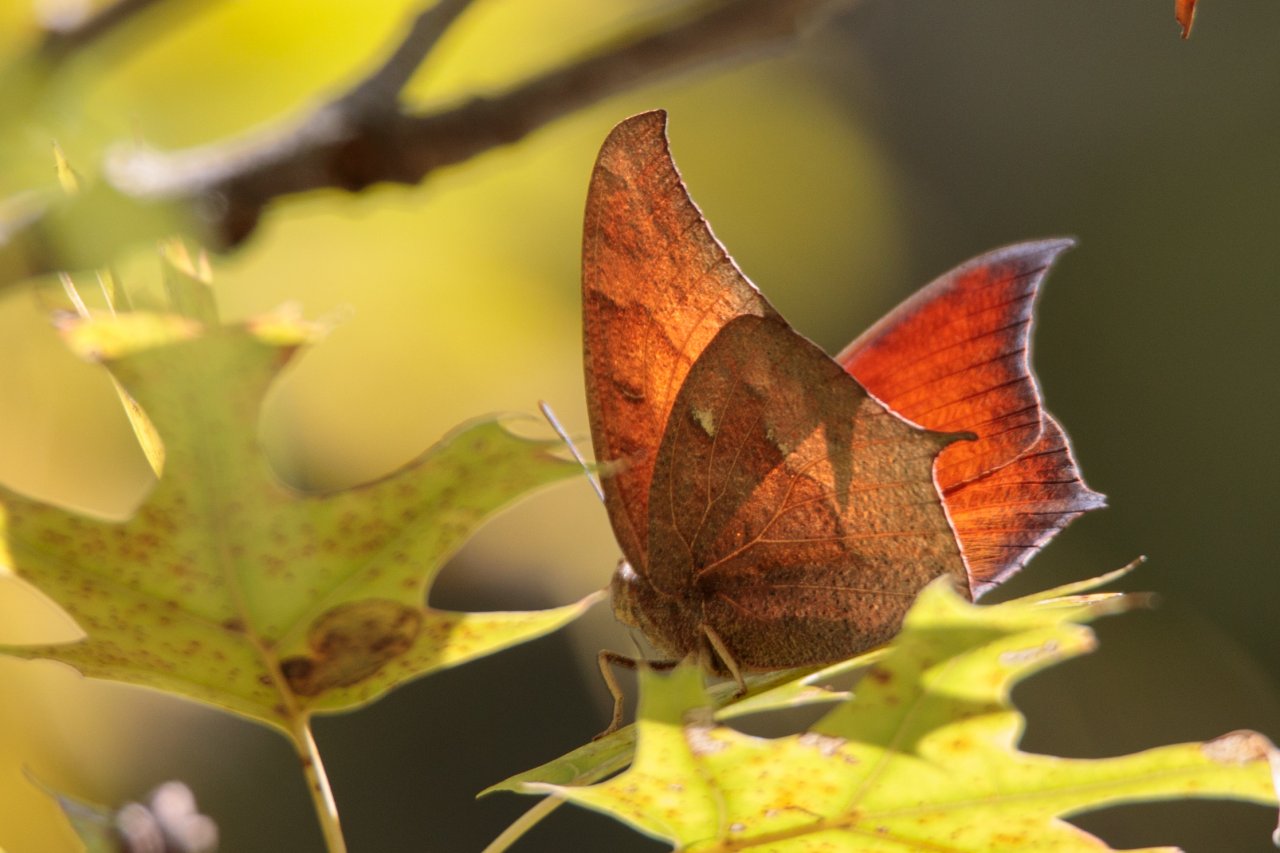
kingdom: Animalia
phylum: Arthropoda
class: Insecta
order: Lepidoptera
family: Nymphalidae
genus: Anaea
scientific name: Anaea andria
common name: Goatweed Leafwing
